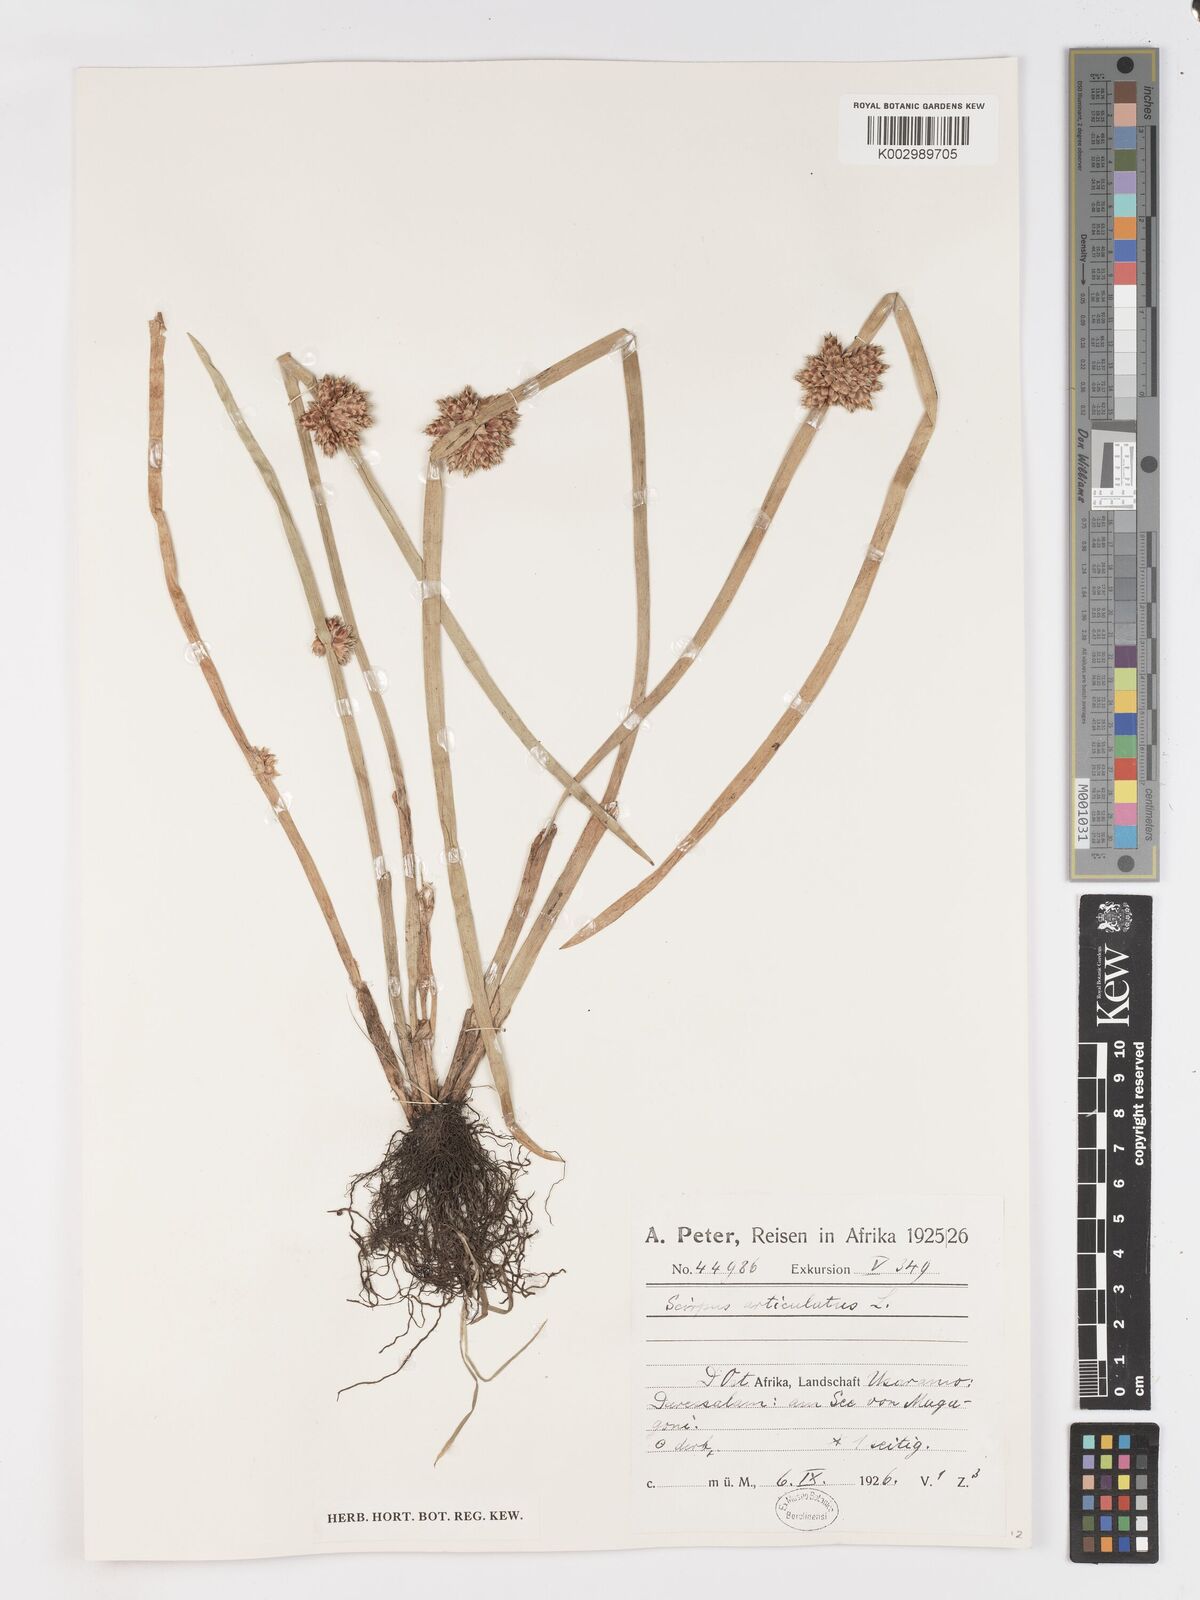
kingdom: Plantae
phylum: Tracheophyta
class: Liliopsida
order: Poales
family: Cyperaceae
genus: Schoenoplectiella
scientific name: Schoenoplectiella articulata
